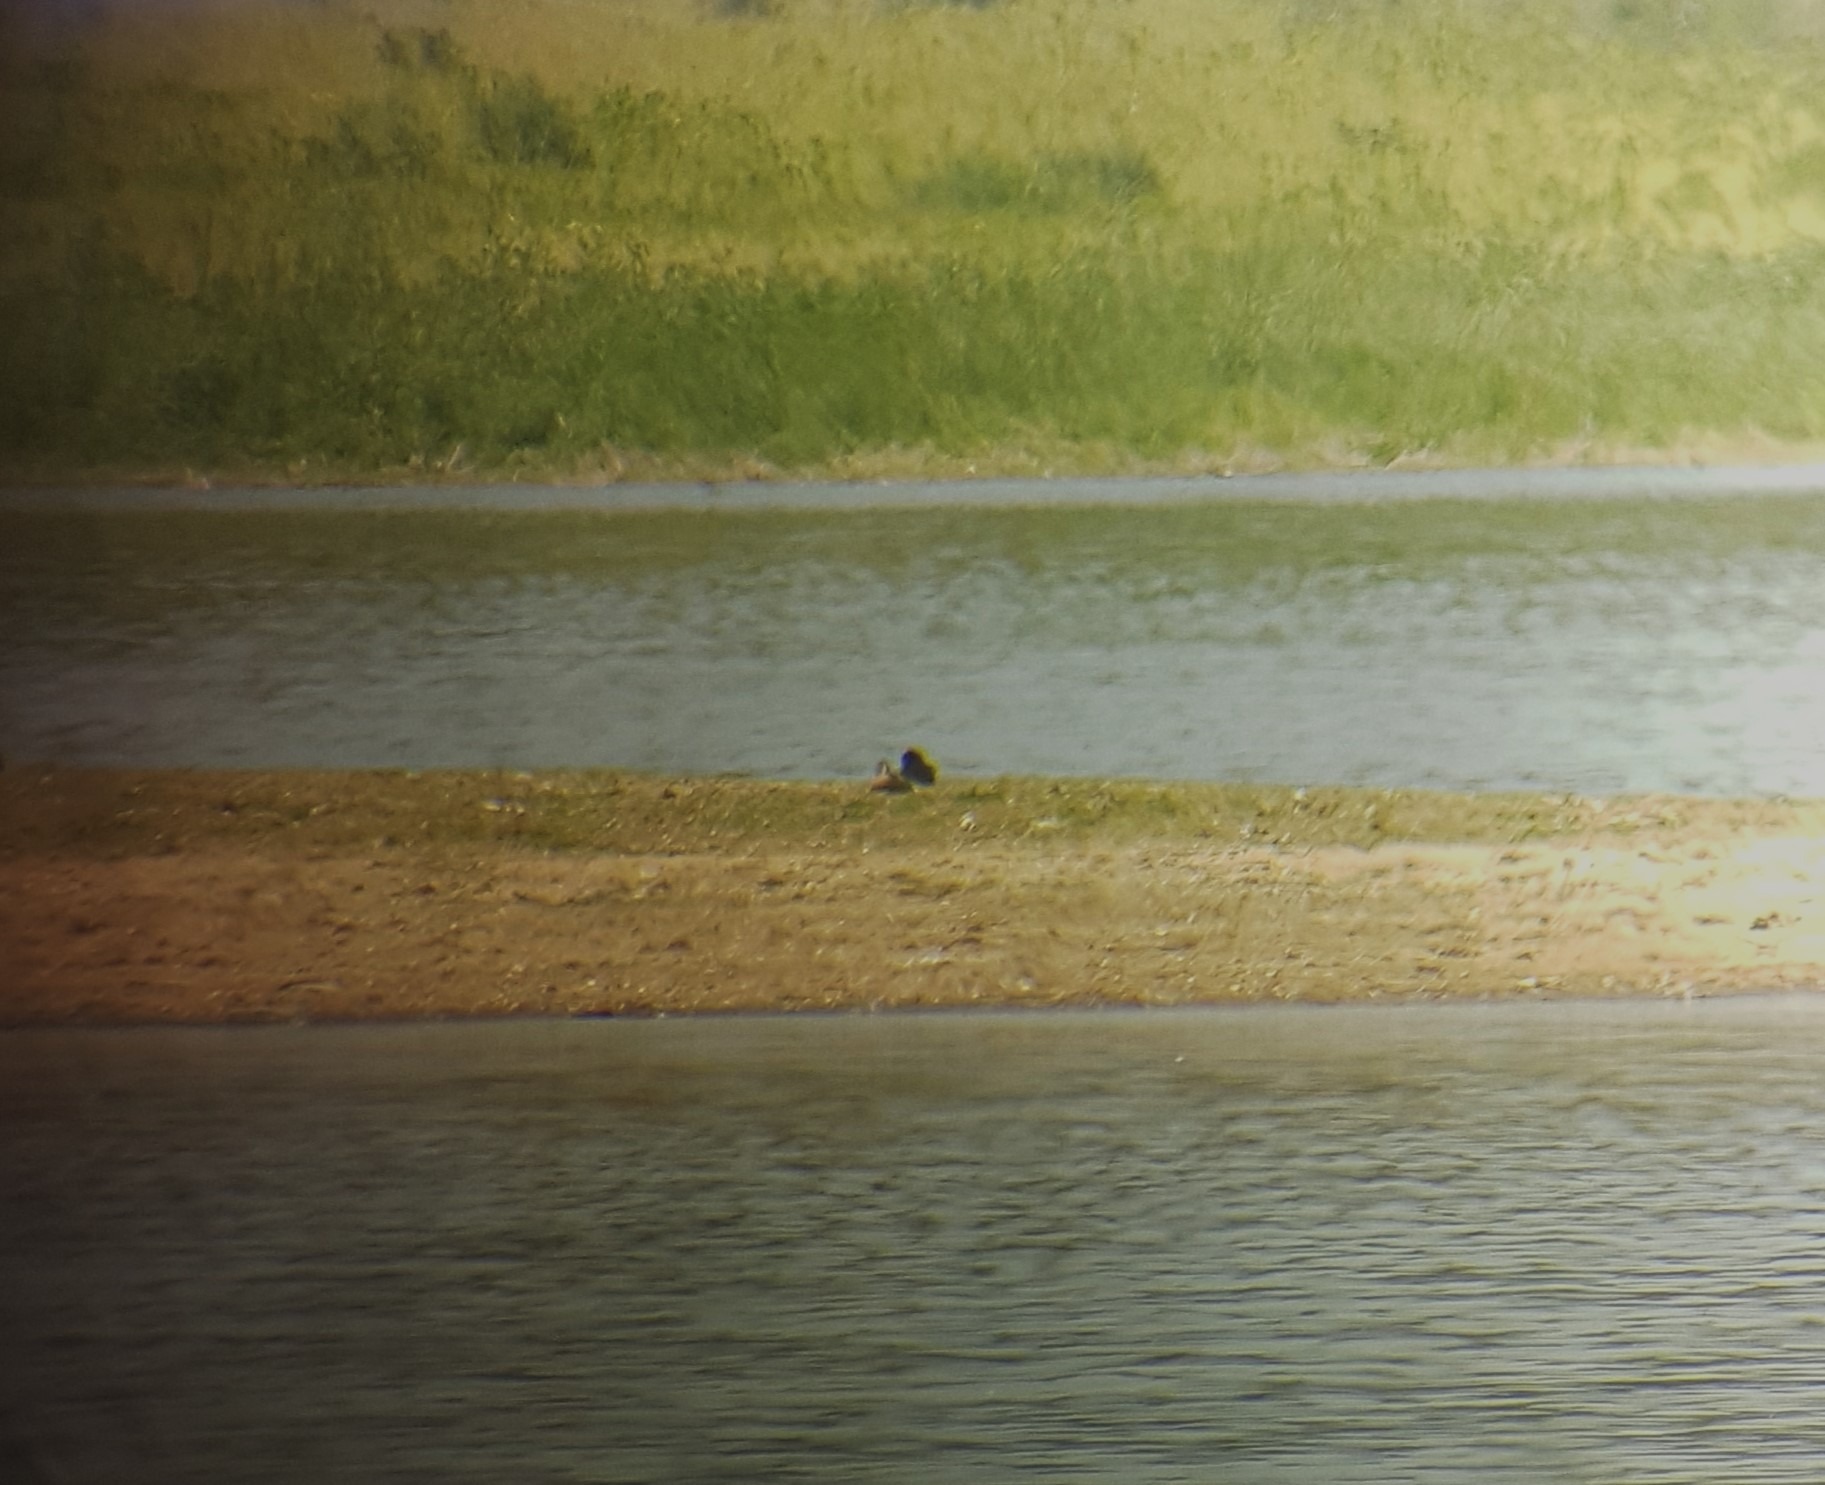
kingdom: Animalia
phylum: Chordata
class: Aves
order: Anseriformes
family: Anatidae
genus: Spatula
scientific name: Spatula discors
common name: Blåvinget and
